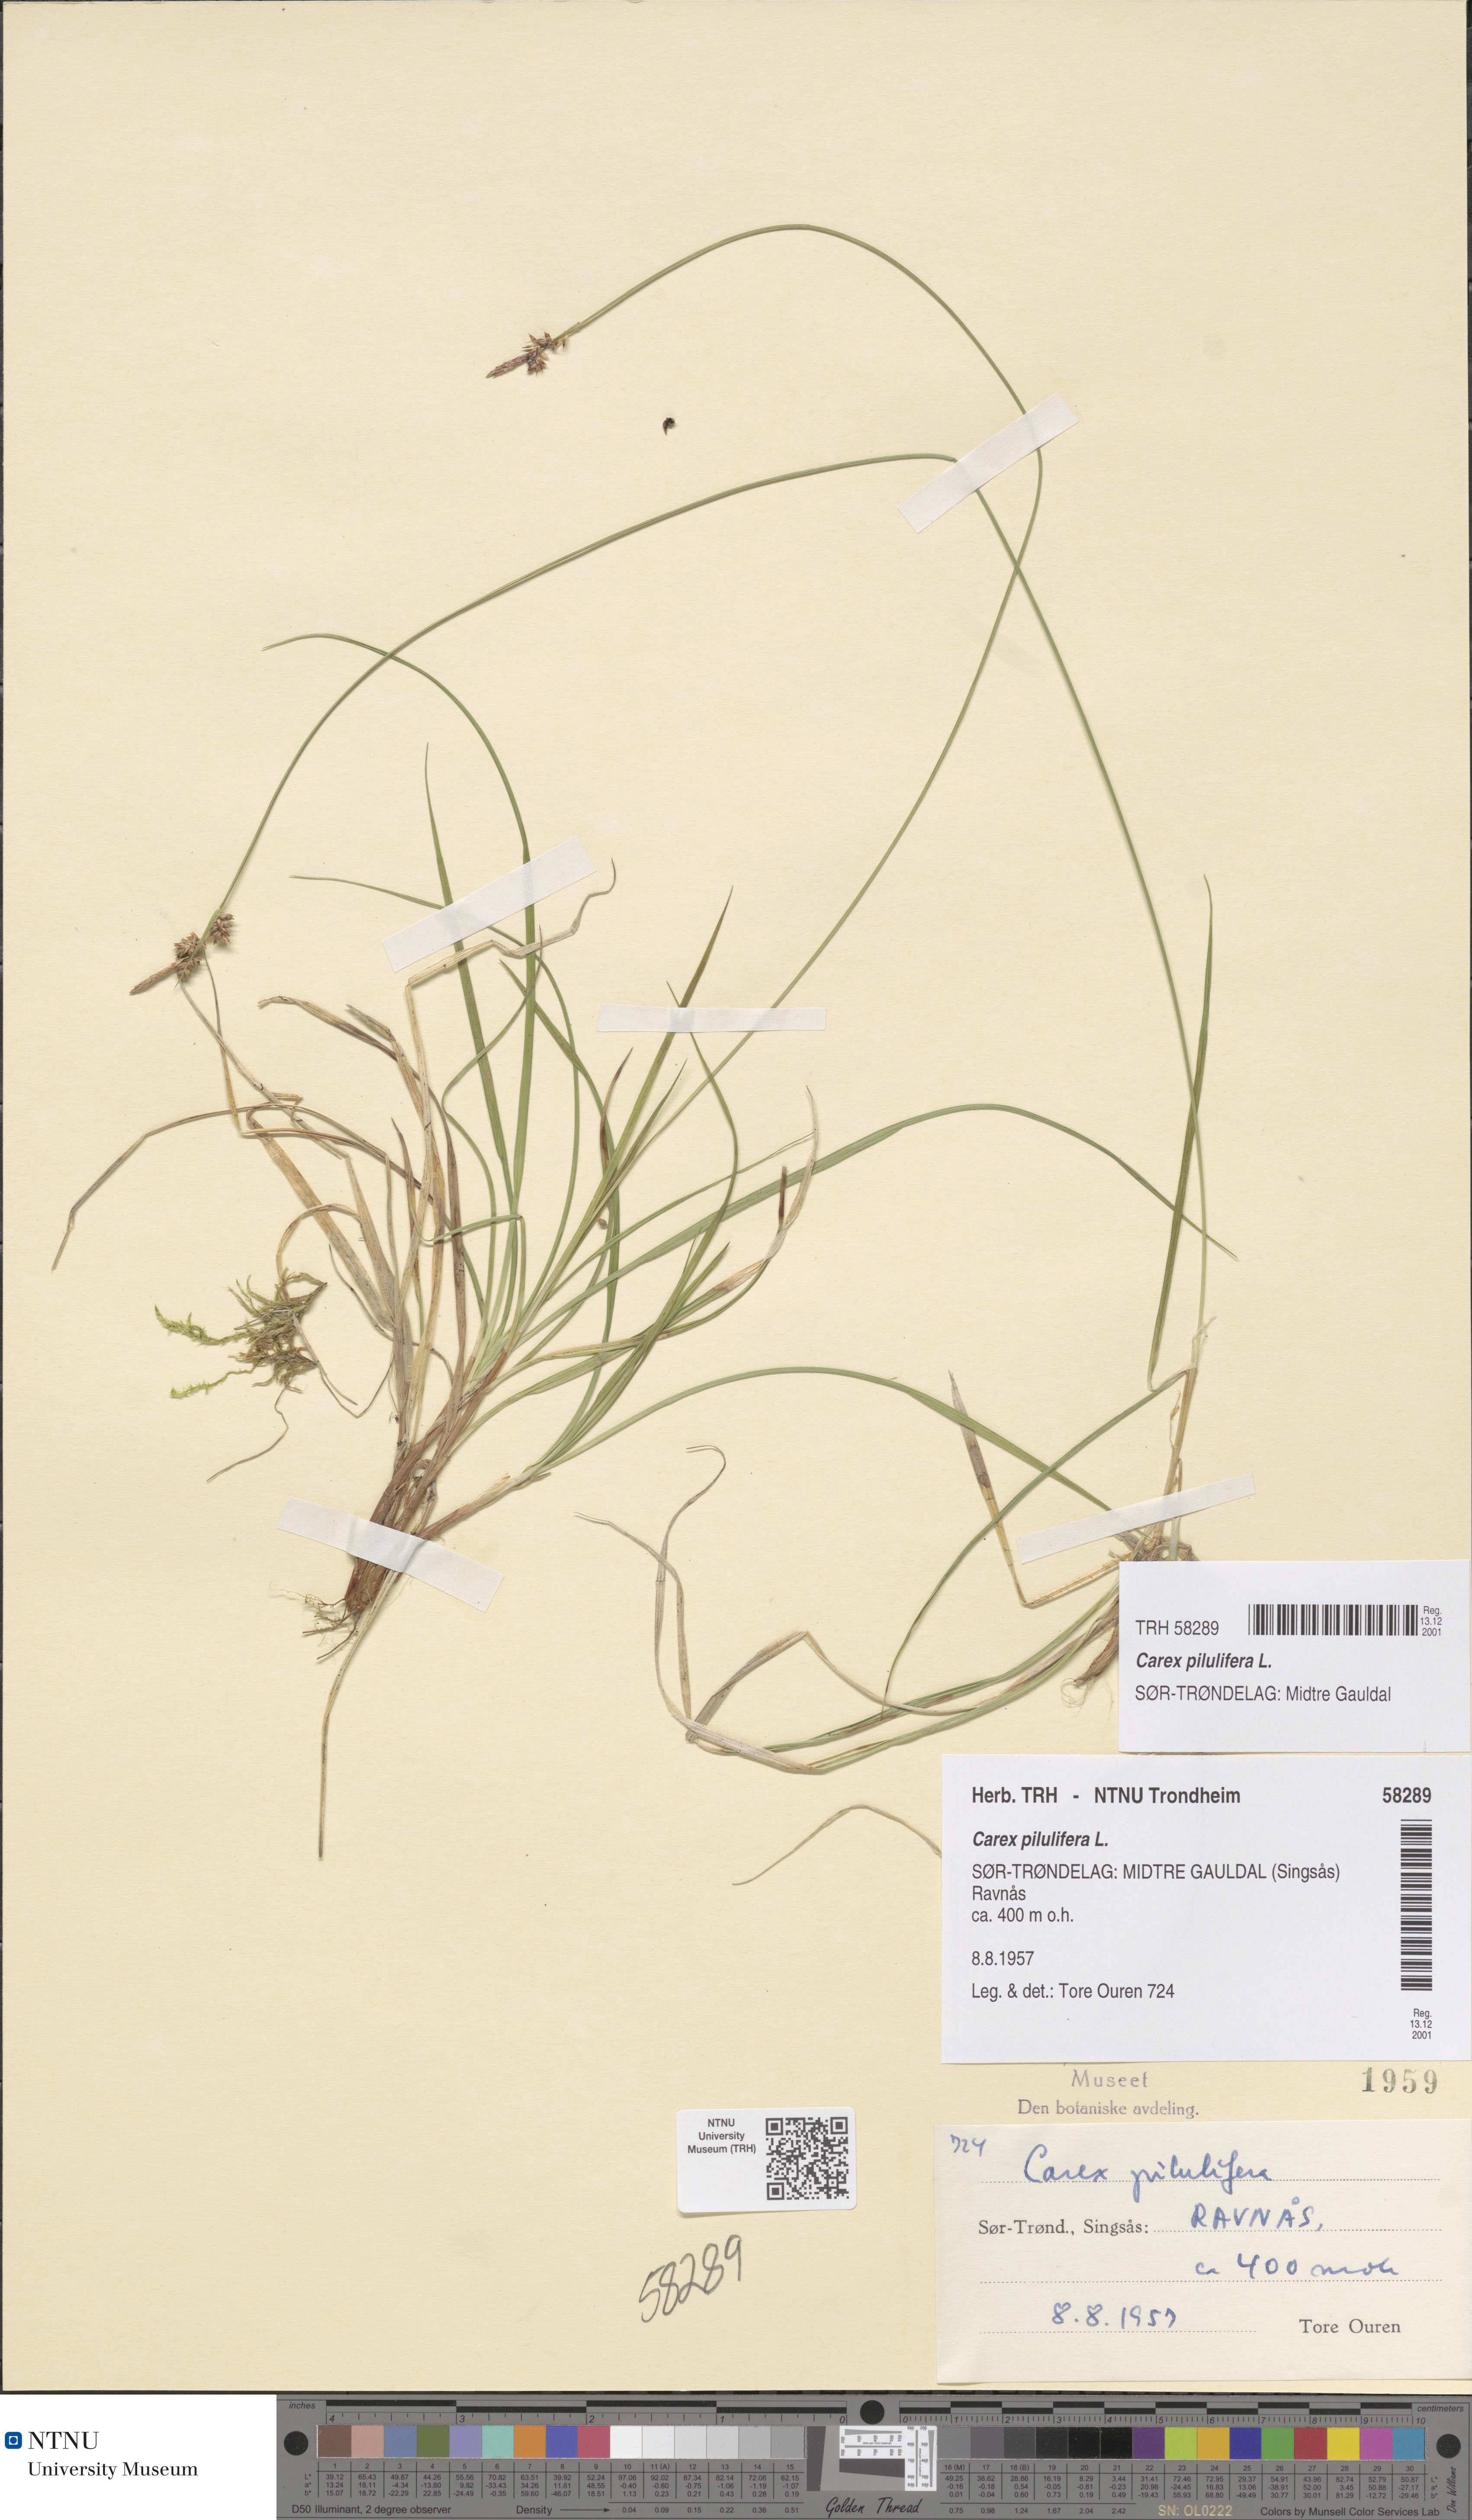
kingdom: Plantae
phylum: Tracheophyta
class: Liliopsida
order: Poales
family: Cyperaceae
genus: Carex
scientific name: Carex pilulifera
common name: Pill sedge
